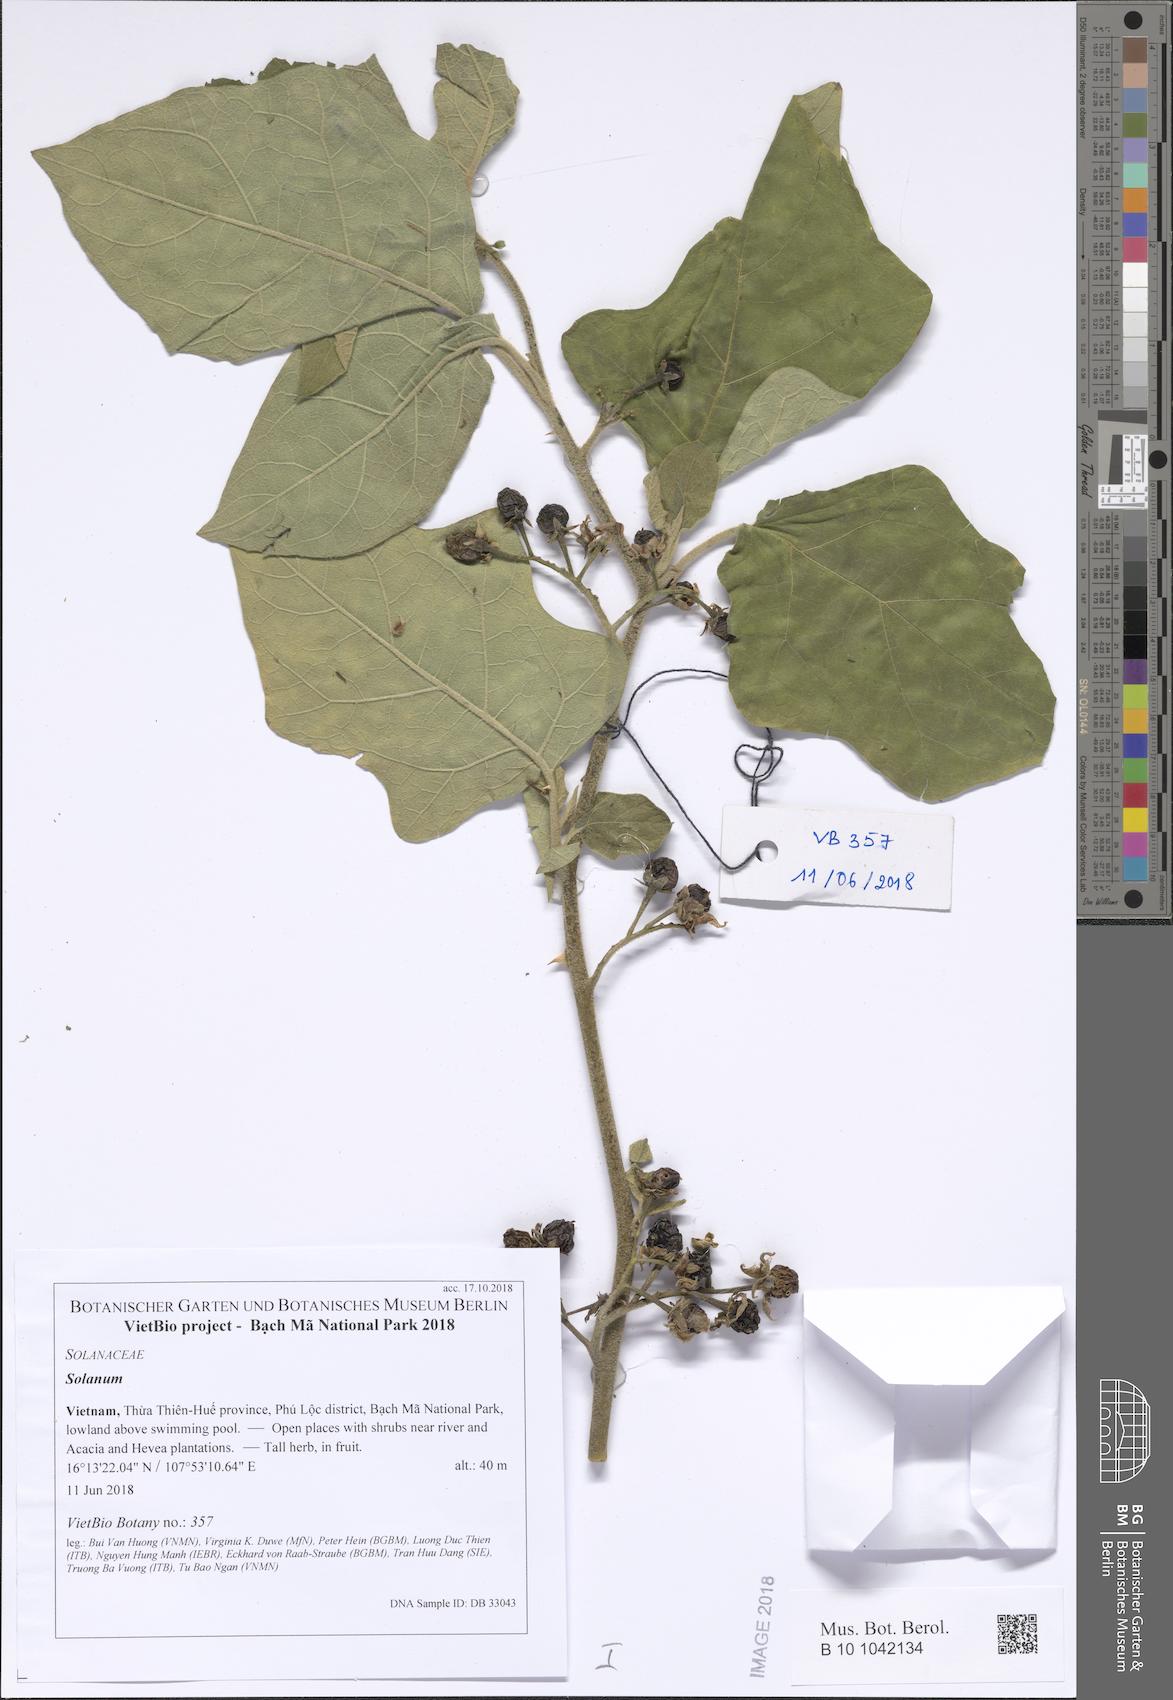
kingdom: Plantae
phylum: Tracheophyta
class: Magnoliopsida
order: Solanales
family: Solanaceae
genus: Solanum
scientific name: Solanum torvum
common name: Turkey berry
